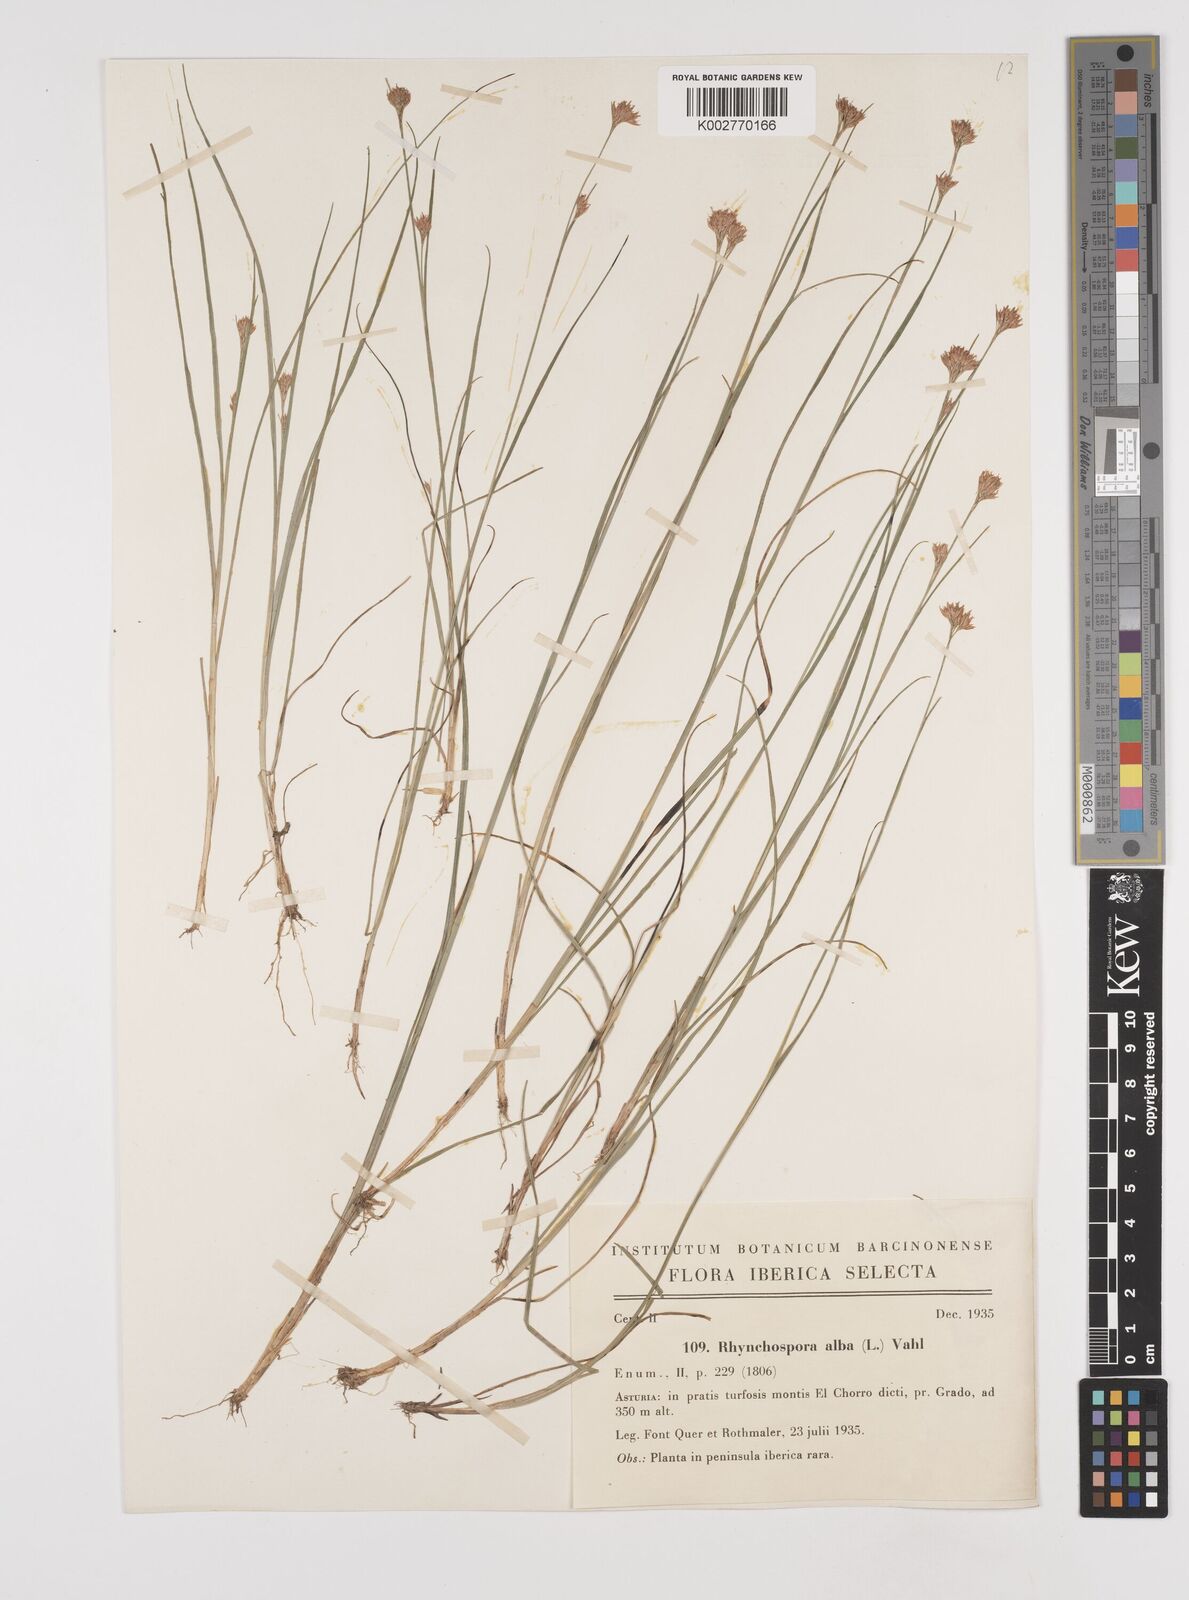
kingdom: Plantae
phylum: Tracheophyta
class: Liliopsida
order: Poales
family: Cyperaceae
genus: Rhynchospora
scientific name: Rhynchospora
